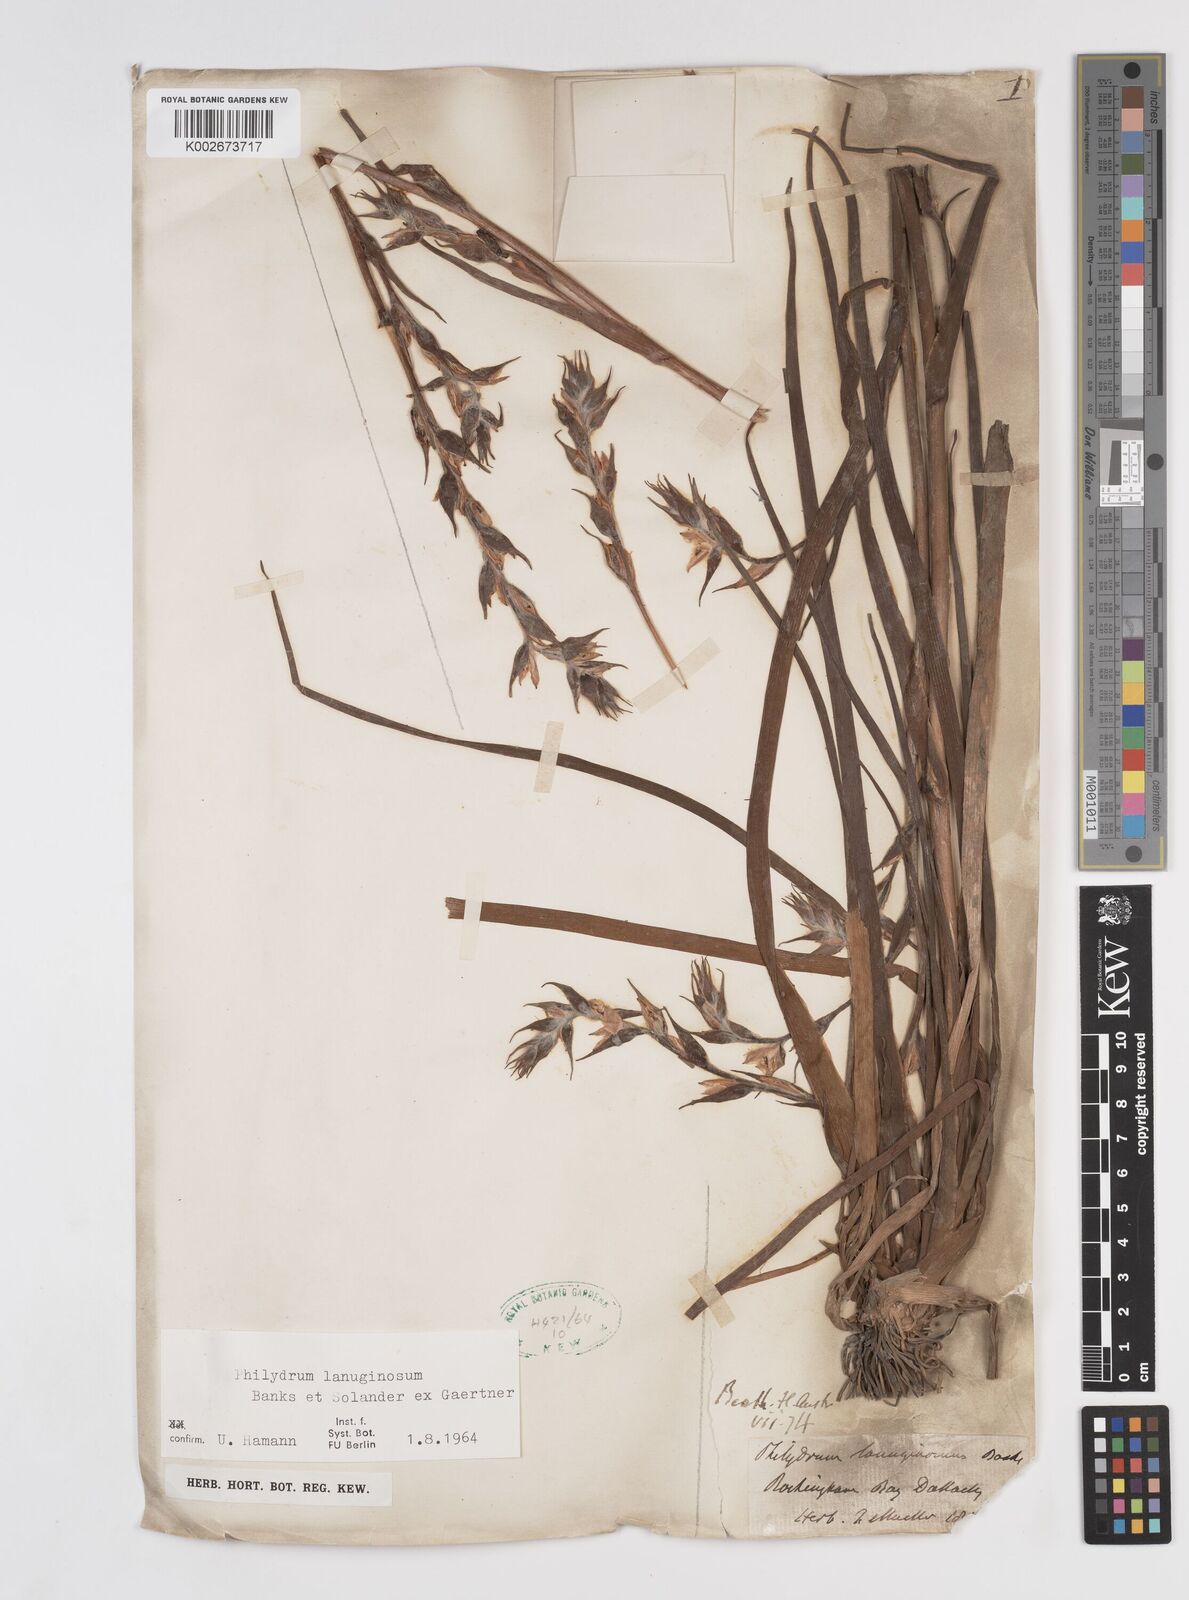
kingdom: Plantae
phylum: Tracheophyta
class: Liliopsida
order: Commelinales
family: Philydraceae
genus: Philydrum
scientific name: Philydrum lanuginosum
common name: Woolly frog's mouth
